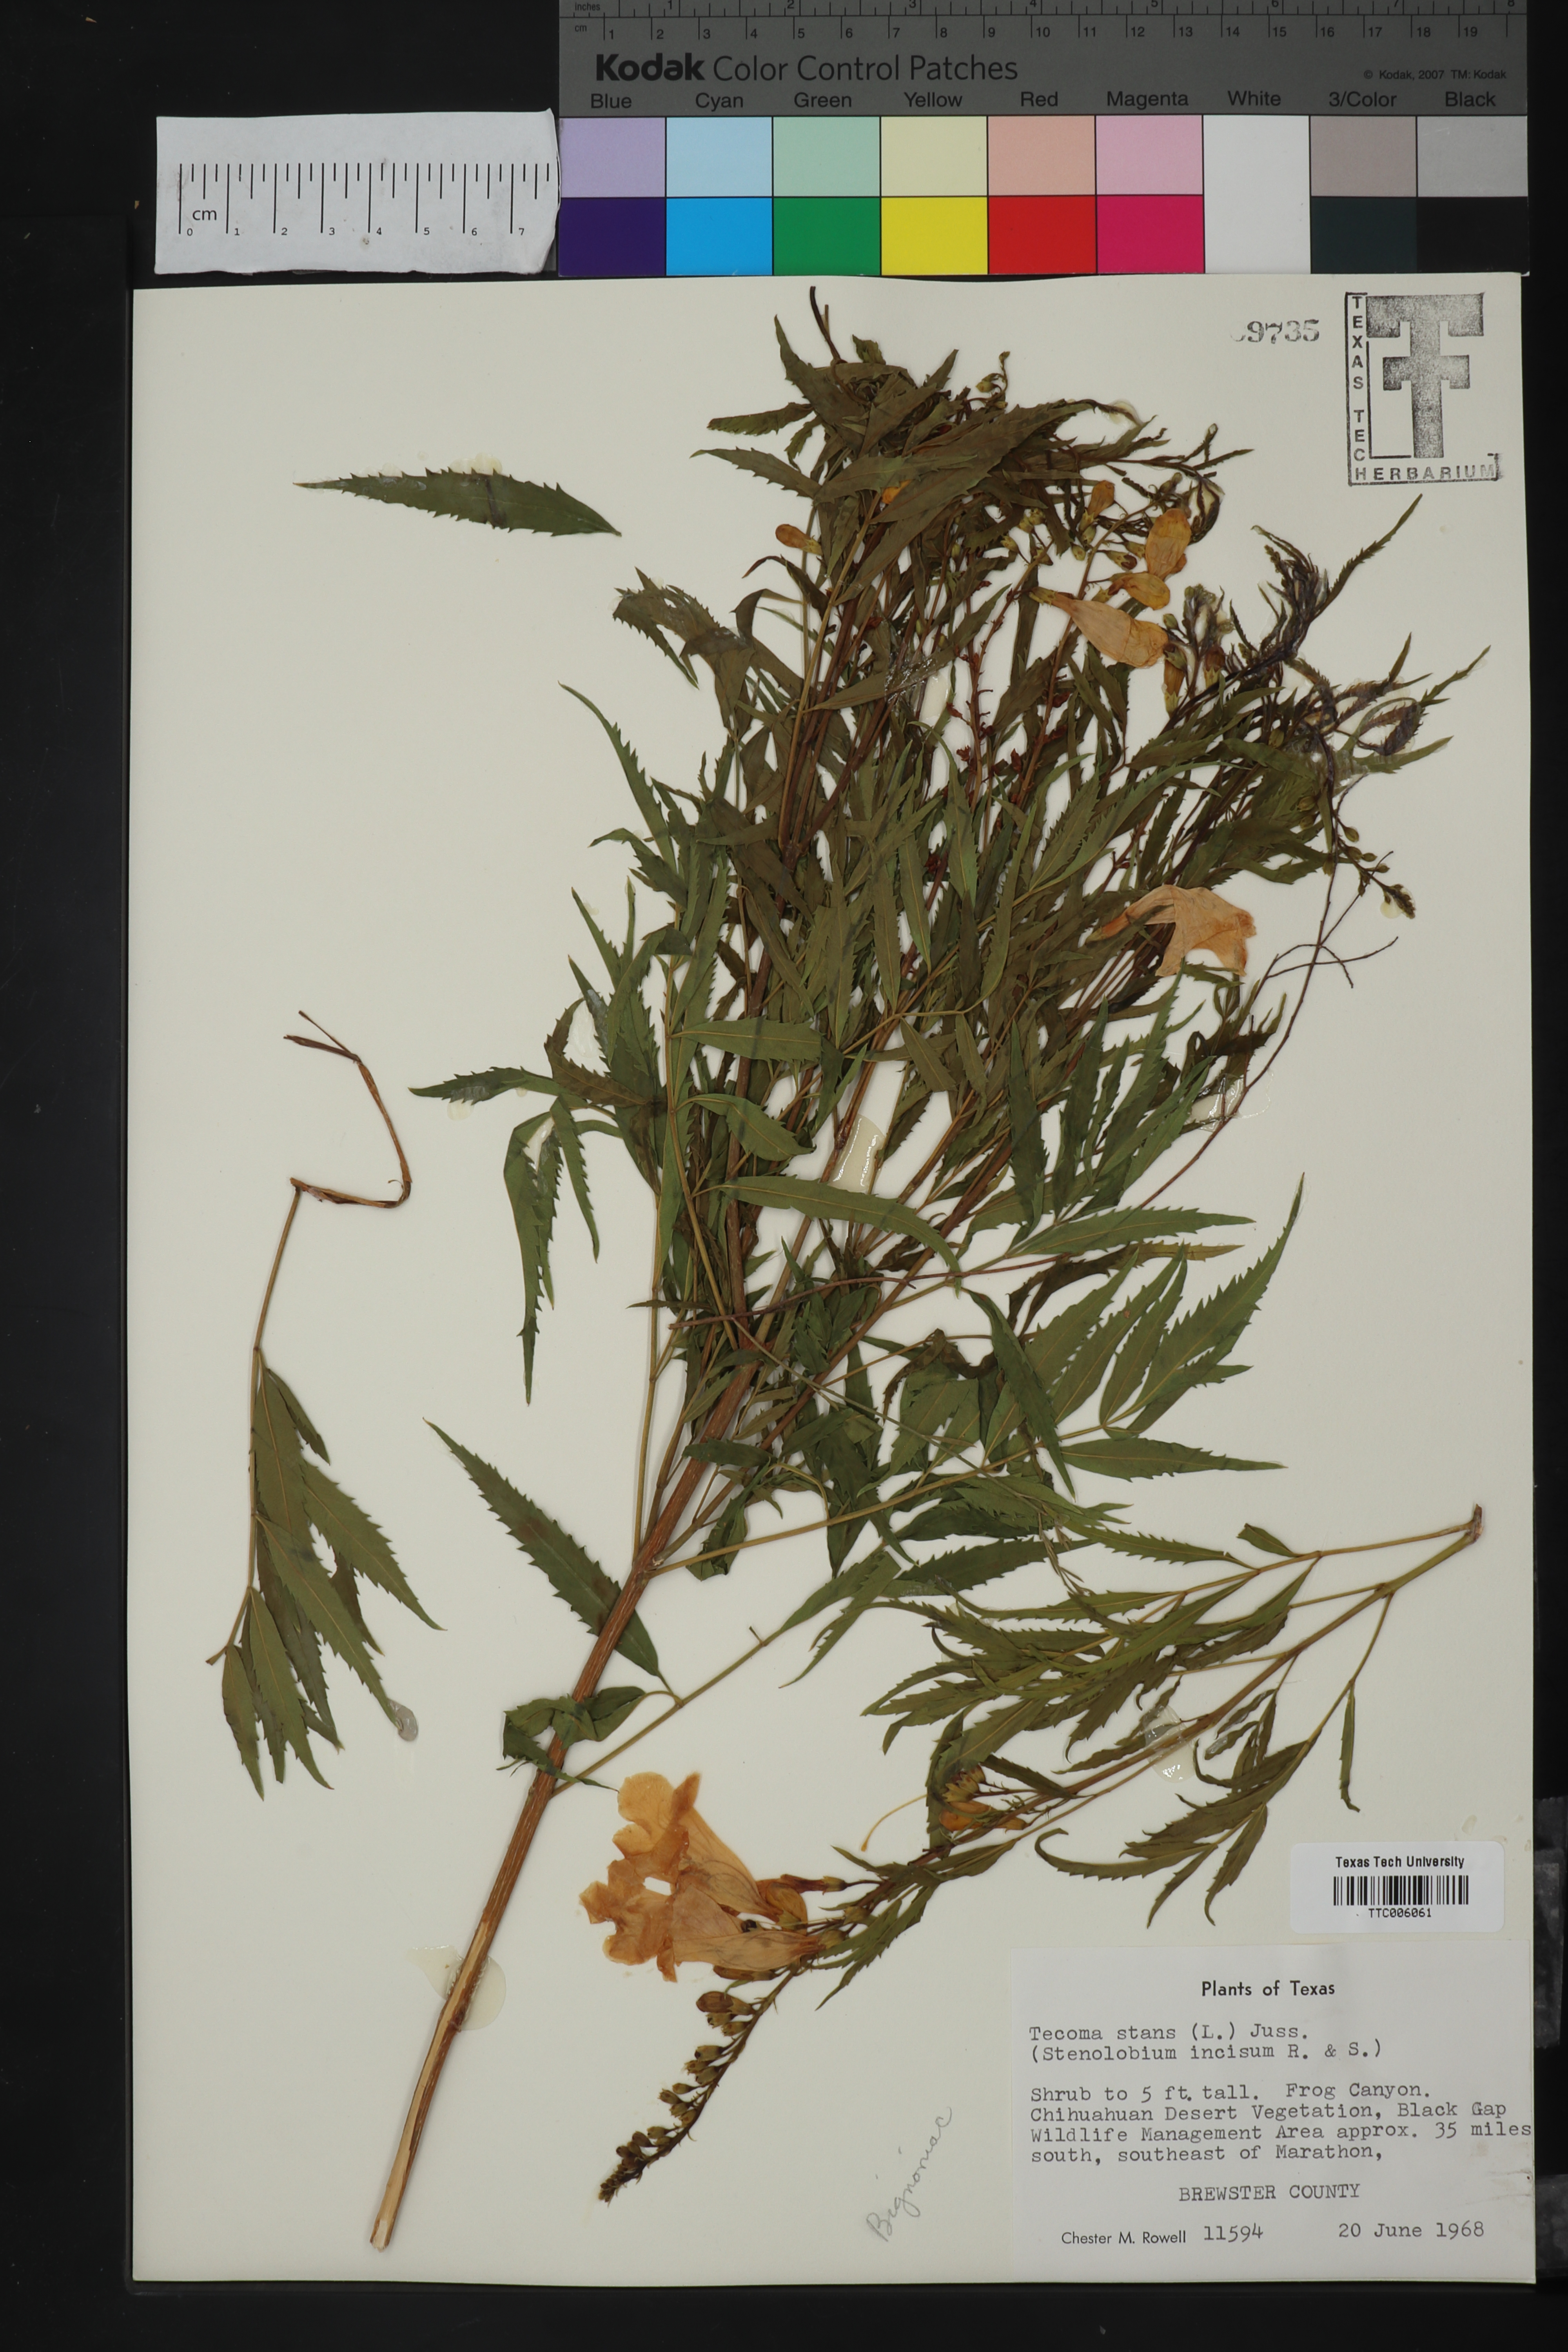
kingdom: Plantae
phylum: Tracheophyta
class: Magnoliopsida
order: Lamiales
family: Bignoniaceae
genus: Tecoma
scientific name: Tecoma stans
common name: Yellow trumpetbush
